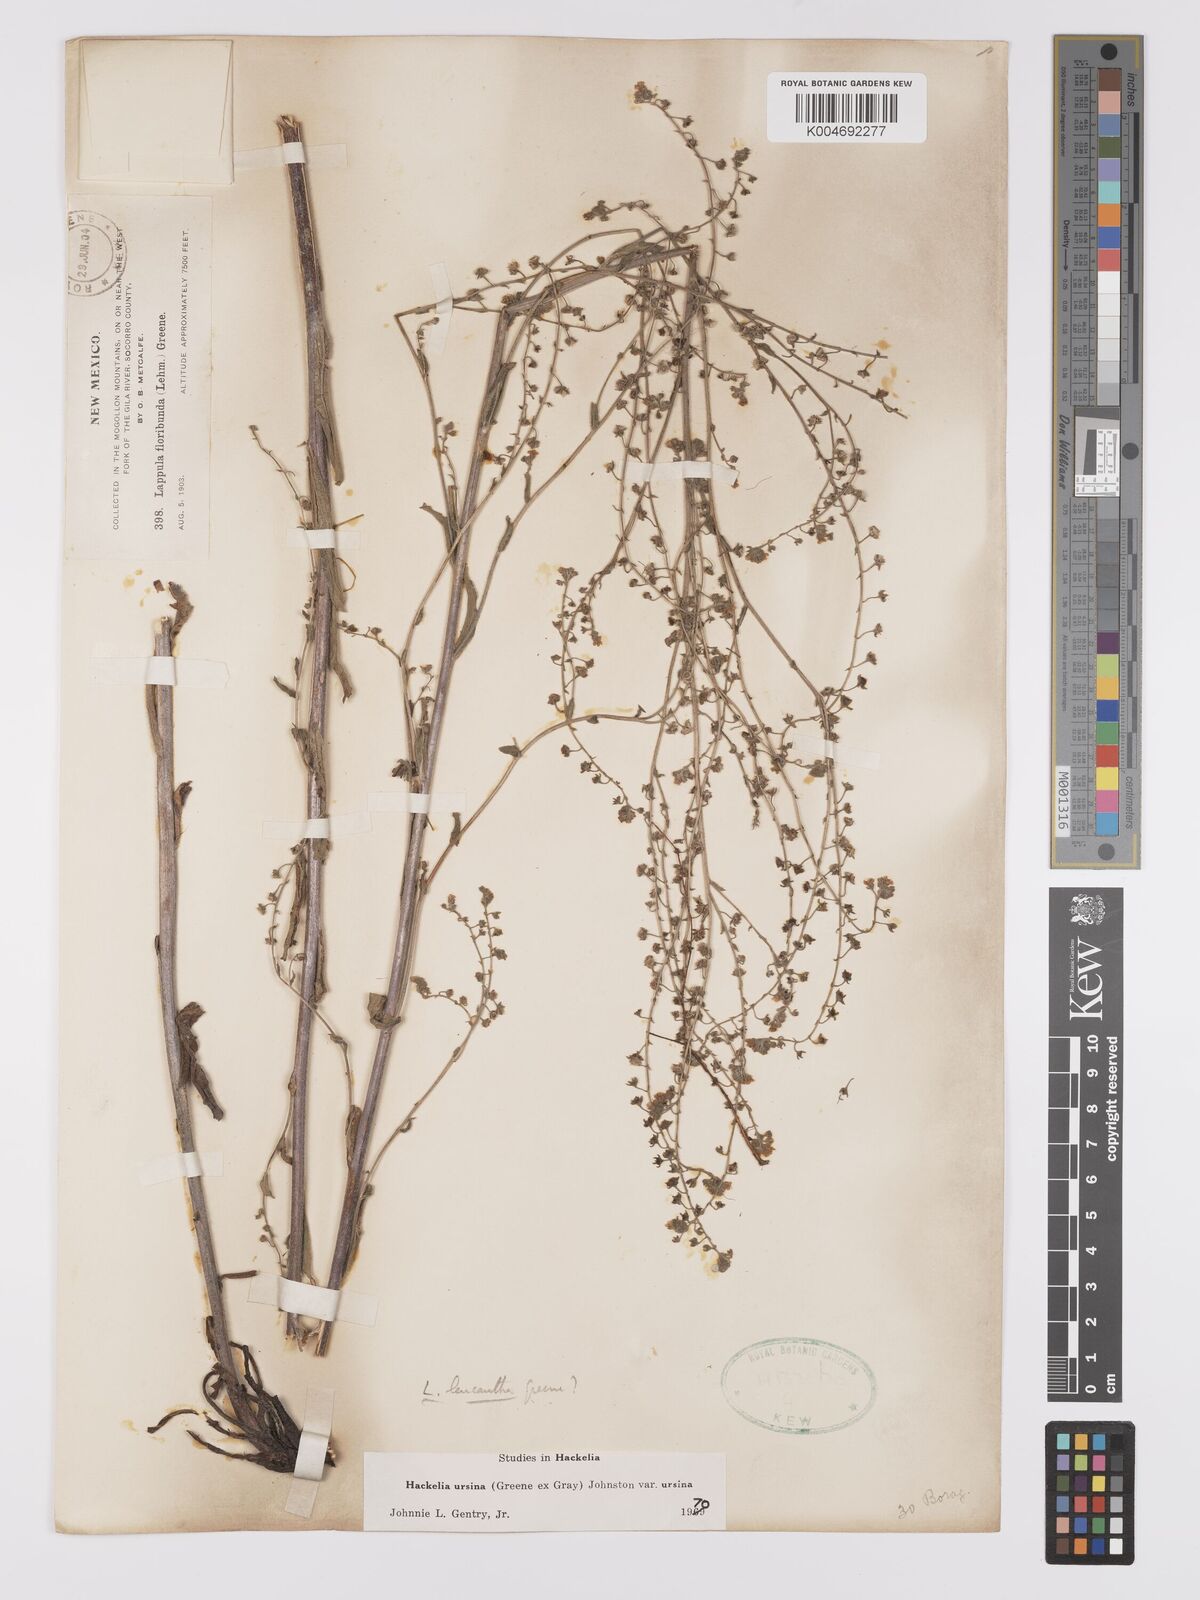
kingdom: Plantae
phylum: Tracheophyta
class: Magnoliopsida
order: Boraginales
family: Boraginaceae
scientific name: Boraginaceae
